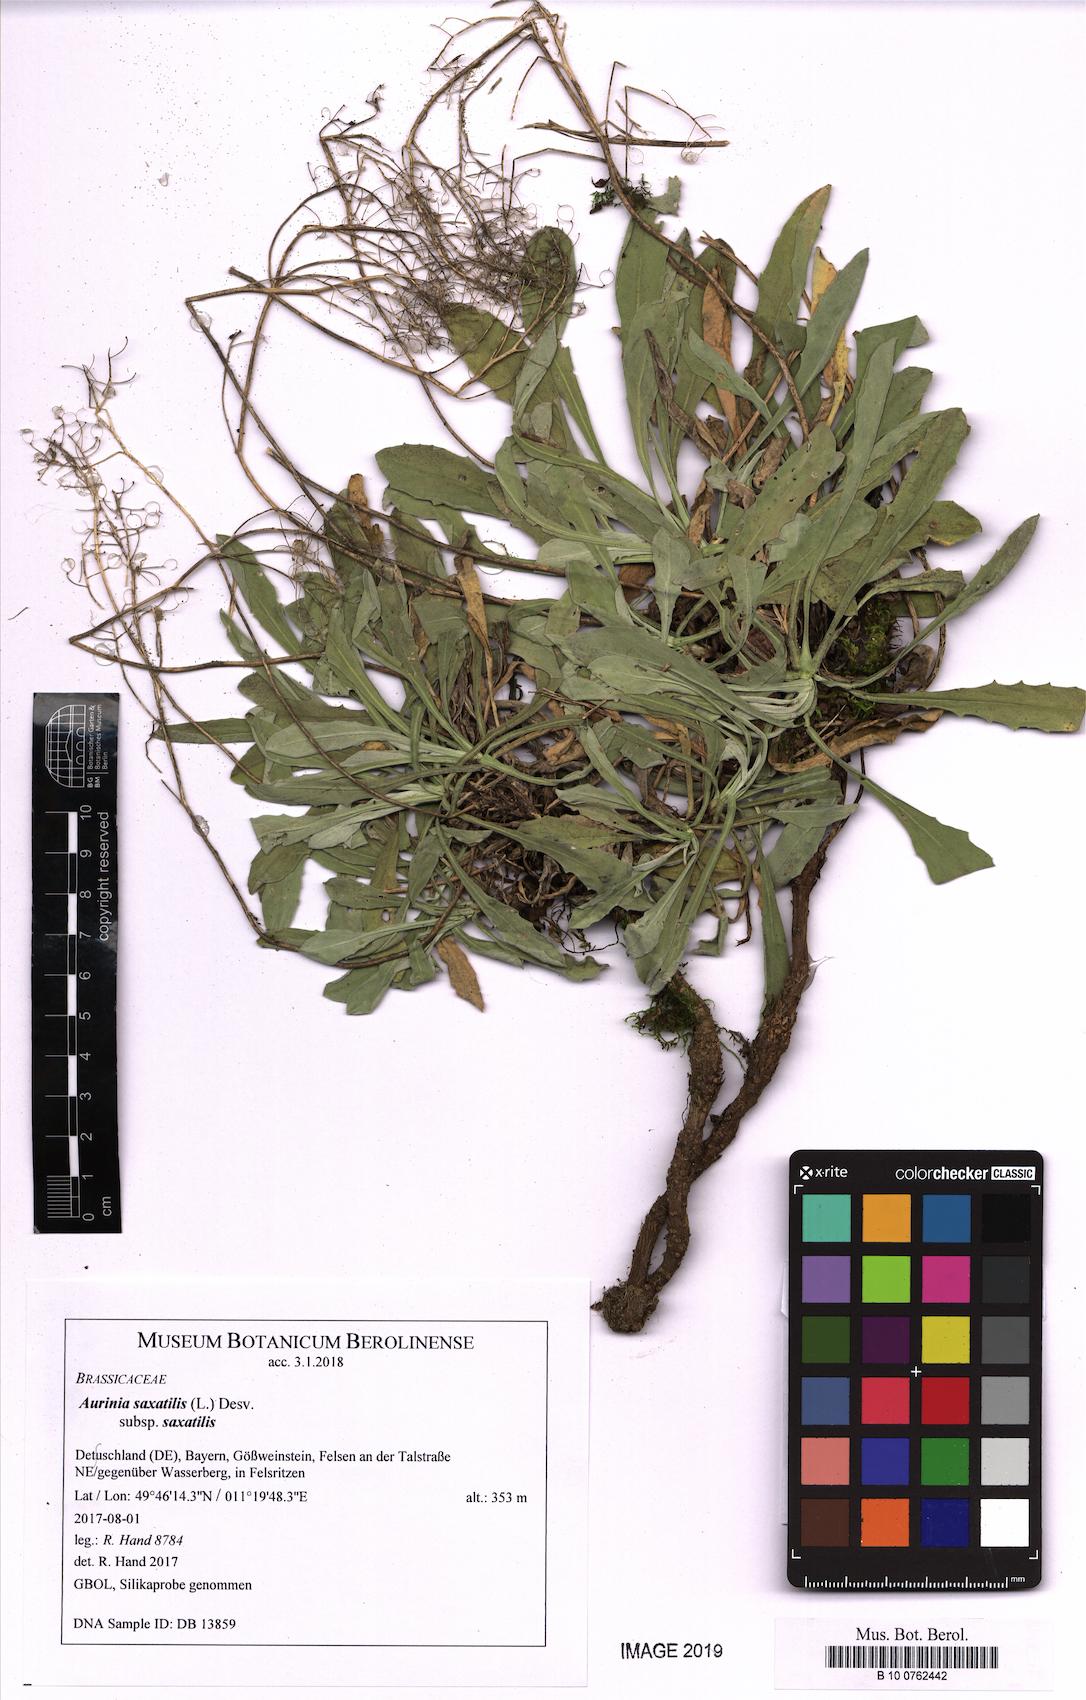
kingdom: Plantae
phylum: Tracheophyta
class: Magnoliopsida
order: Brassicales
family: Brassicaceae
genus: Aurinia
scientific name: Aurinia saxatilis
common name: Golden-tuft alyssum
